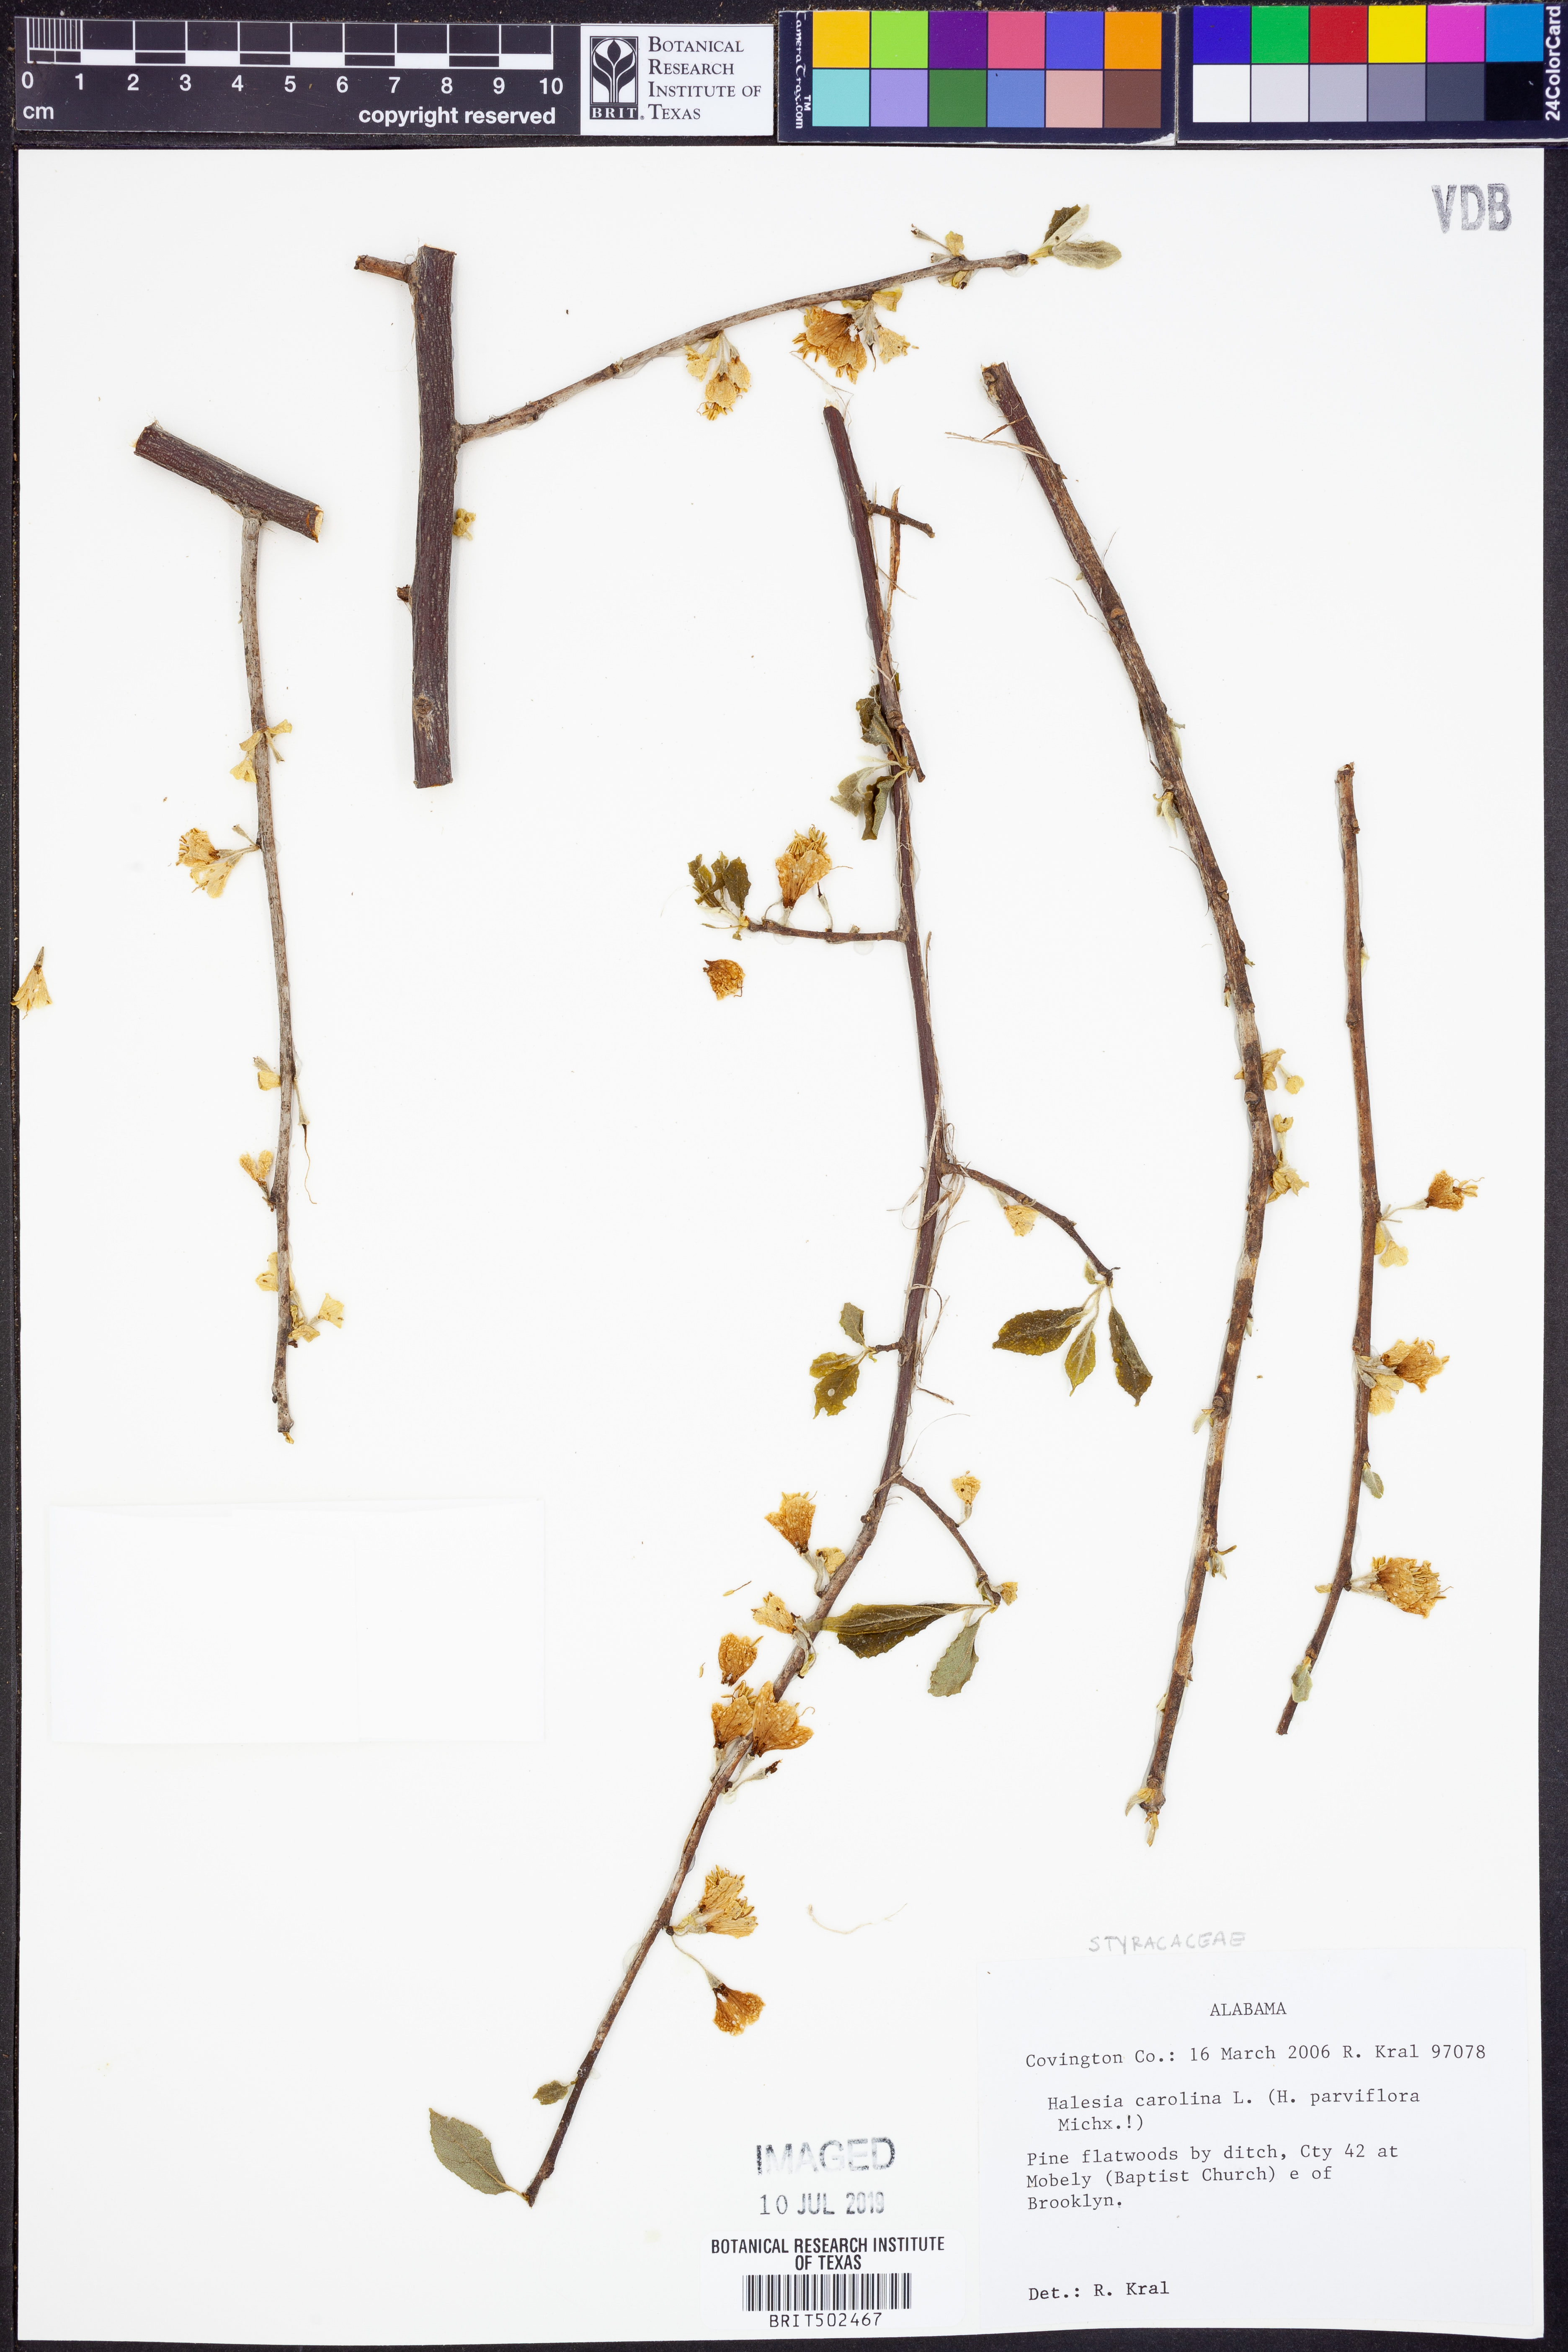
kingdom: Plantae
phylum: Tracheophyta
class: Magnoliopsida
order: Ericales
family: Styracaceae
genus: Halesia
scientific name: Halesia carolina
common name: Carolina silverbell
